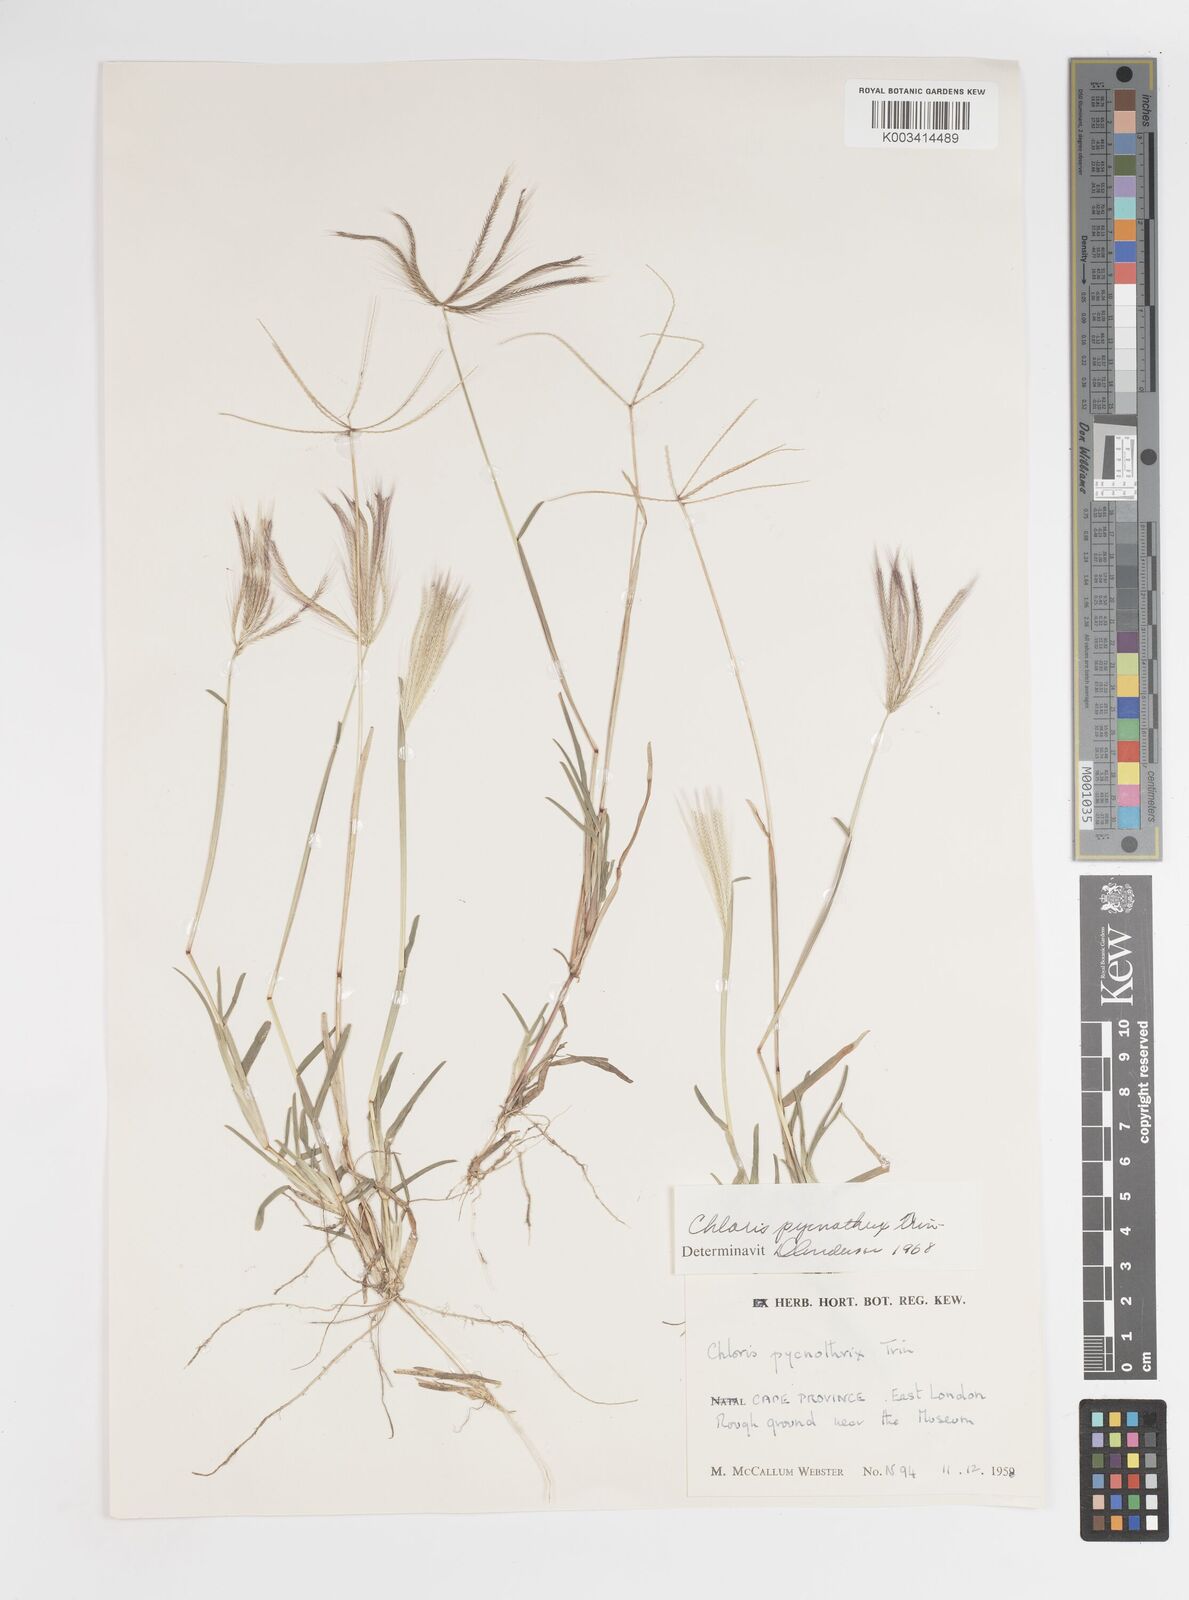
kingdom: Plantae
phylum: Tracheophyta
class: Liliopsida
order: Poales
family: Poaceae
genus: Chloris
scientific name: Chloris pycnothrix
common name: Spiderweb chloris
